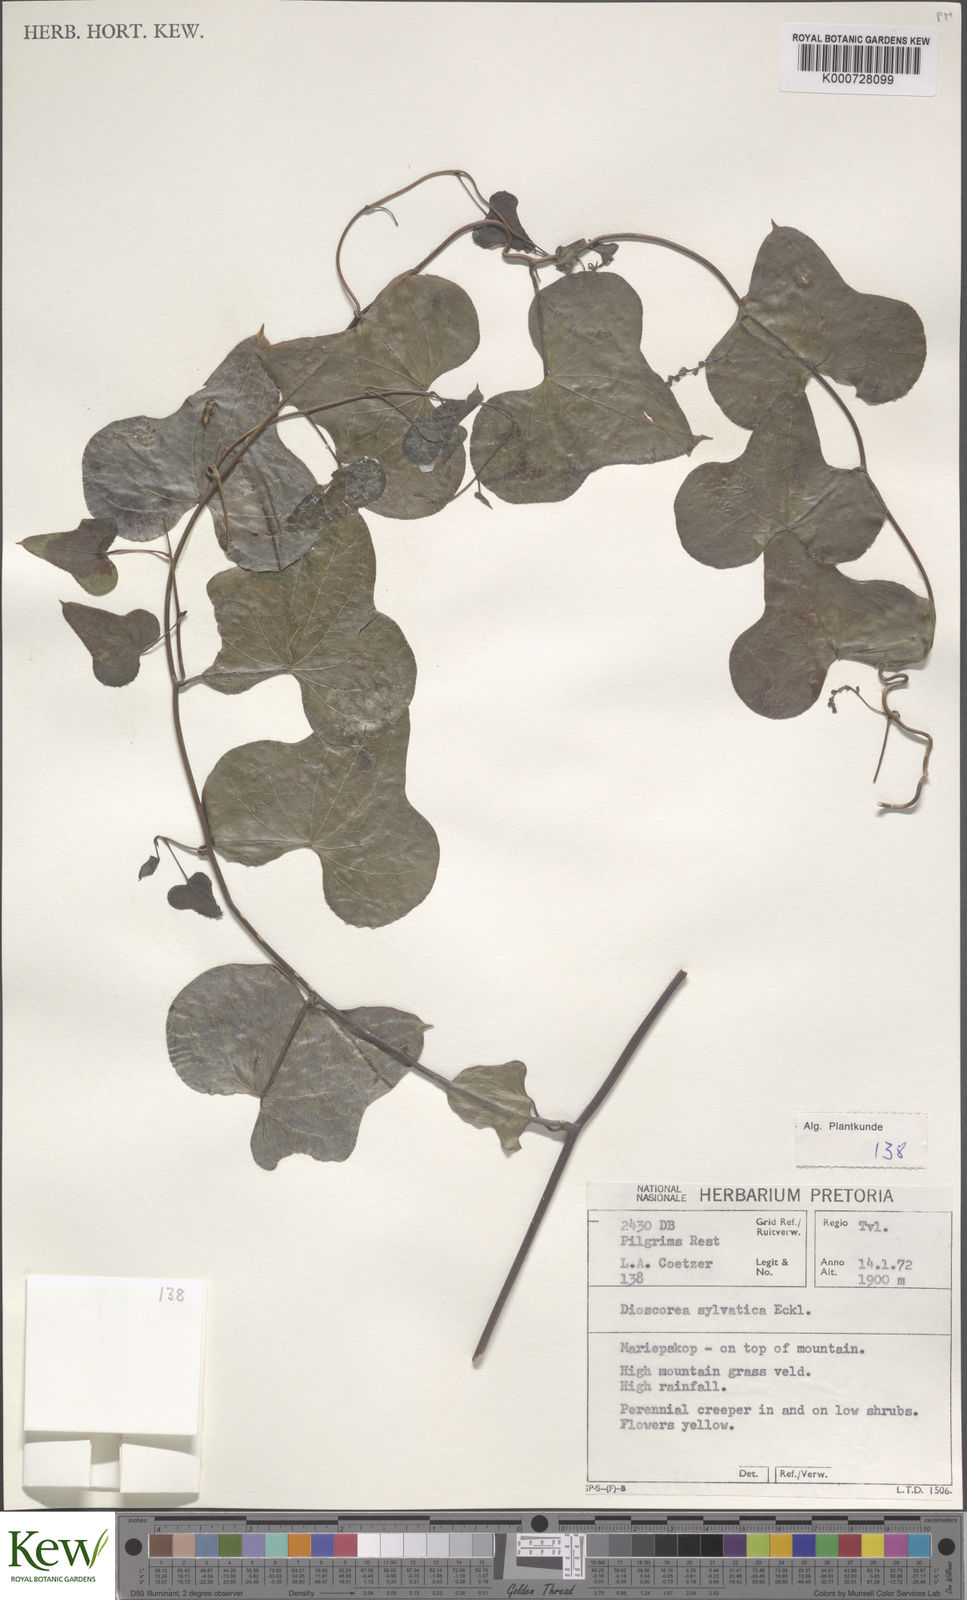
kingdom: Plantae
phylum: Tracheophyta
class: Liliopsida
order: Dioscoreales
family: Dioscoreaceae
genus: Dioscorea
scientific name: Dioscorea sylvatica
